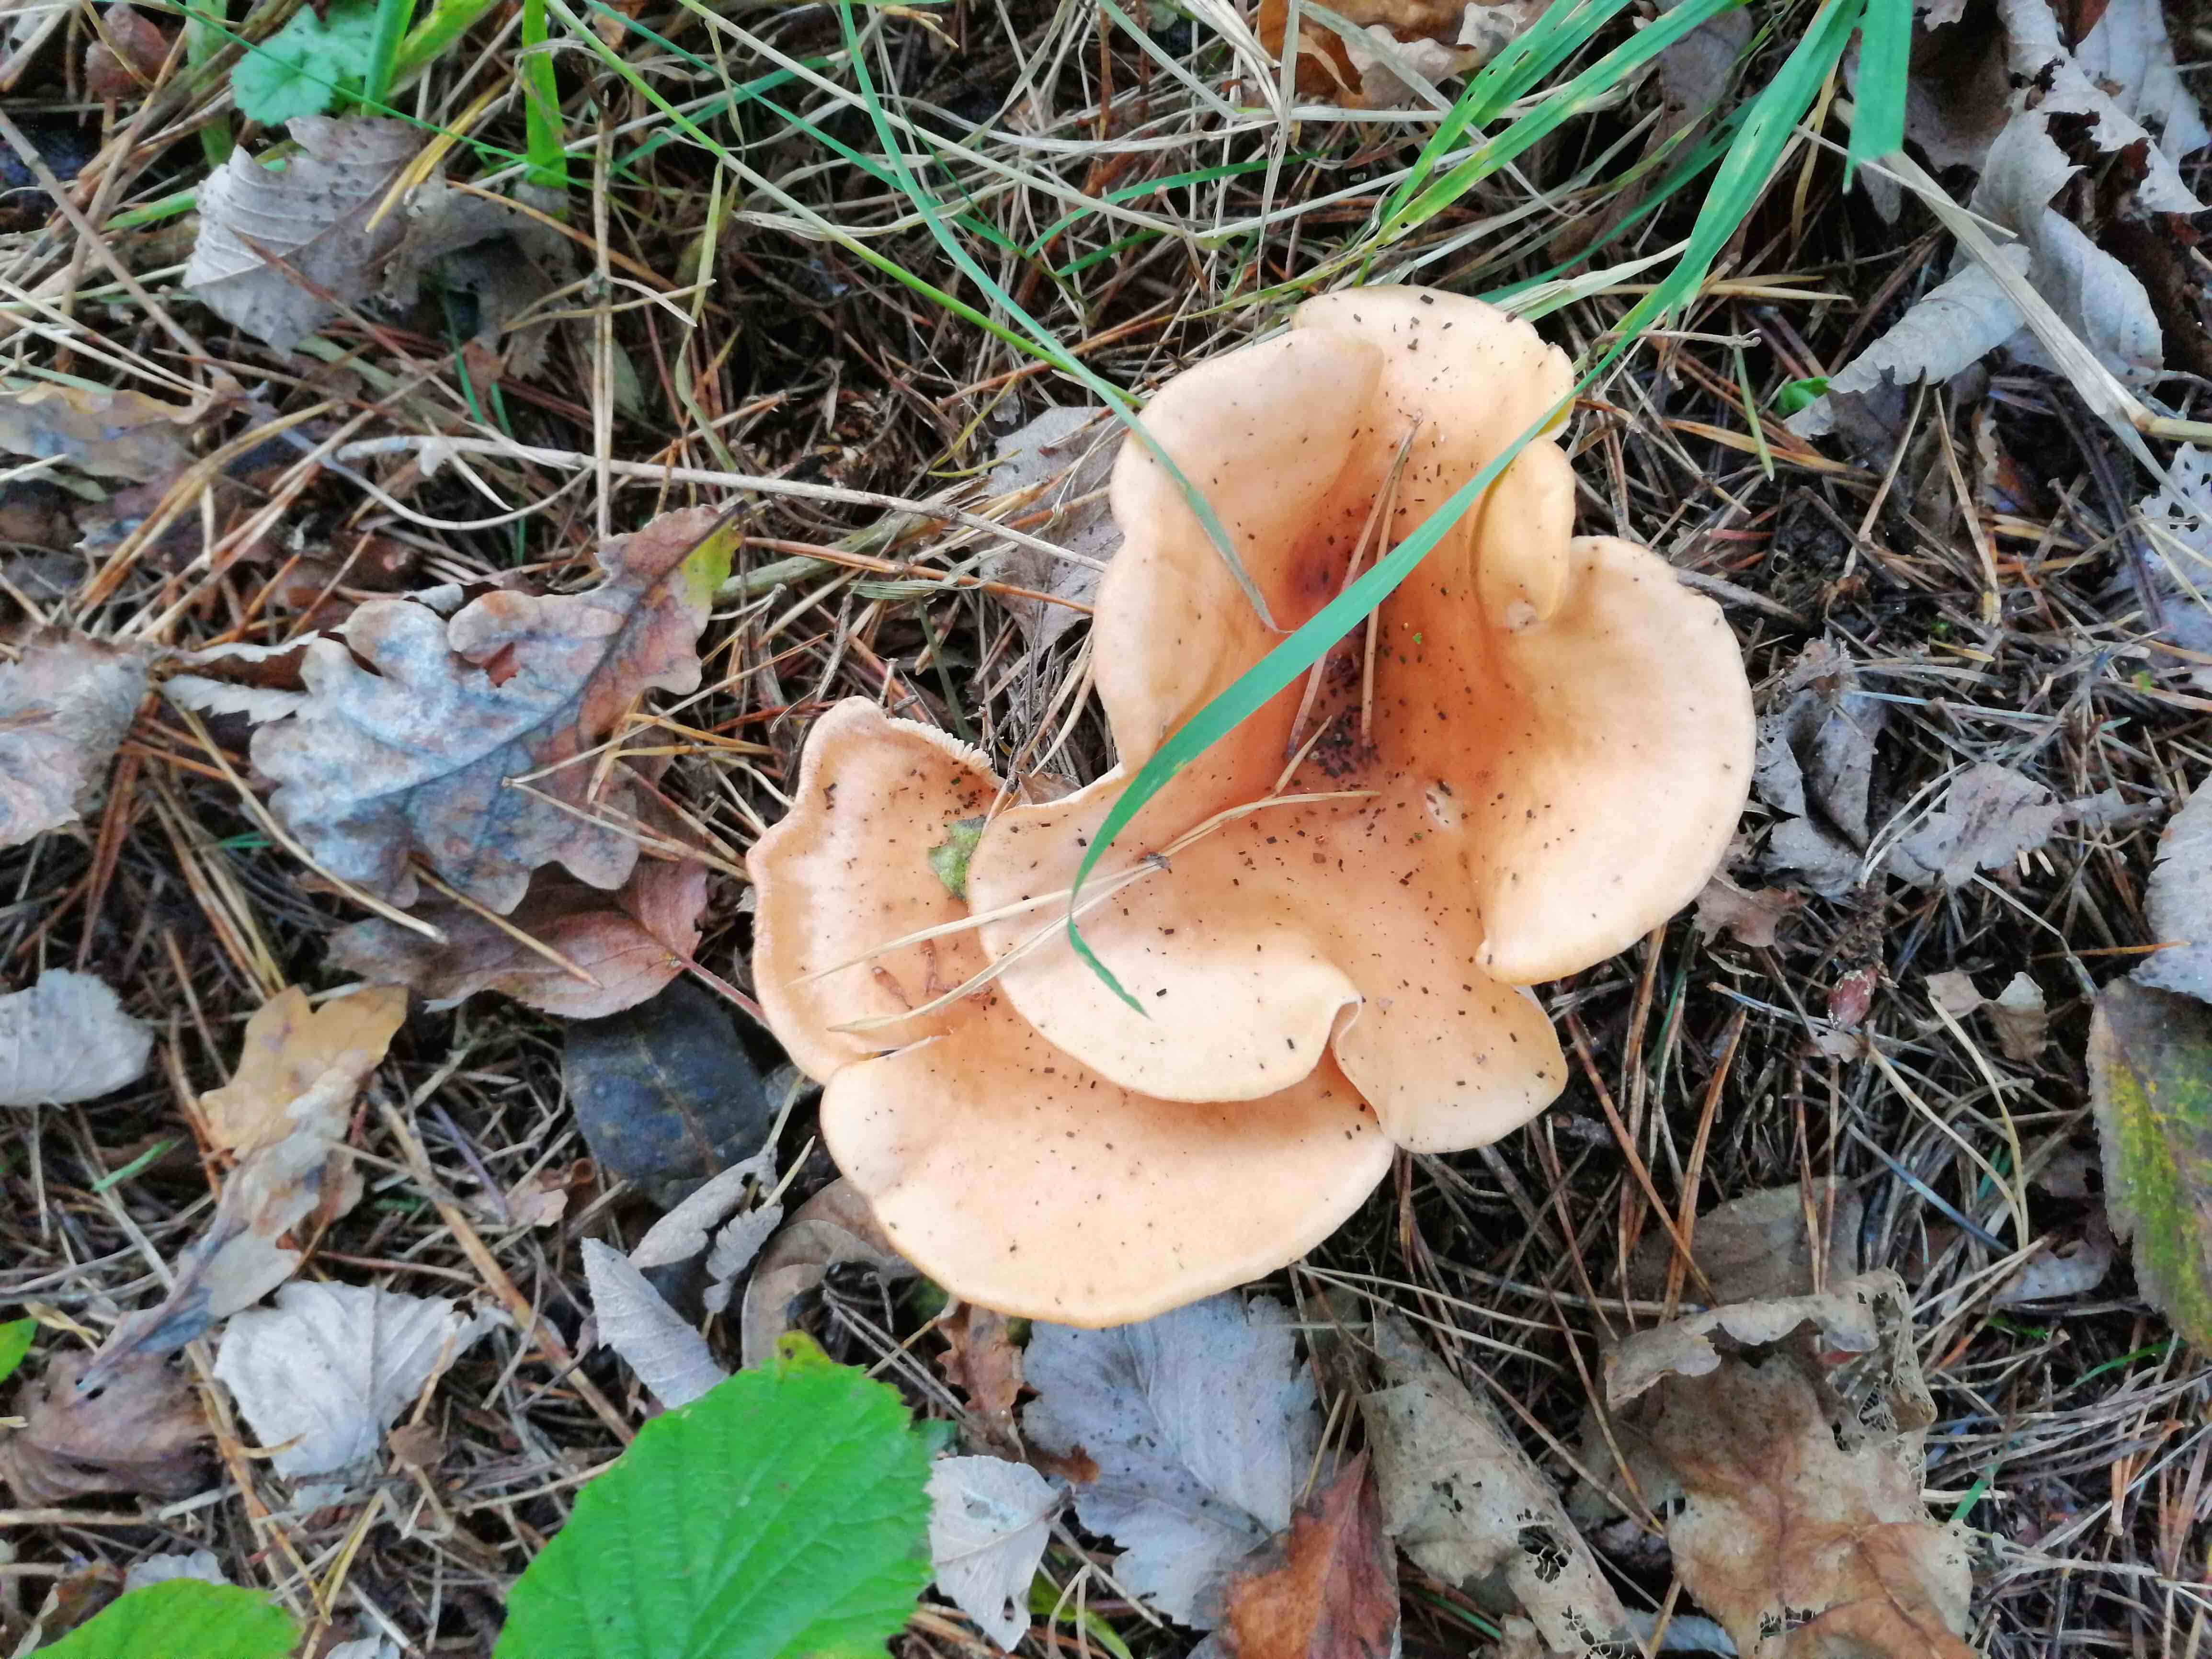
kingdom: Fungi
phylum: Basidiomycota
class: Agaricomycetes
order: Agaricales
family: Tricholomataceae
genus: Paralepista
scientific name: Paralepista flaccida
